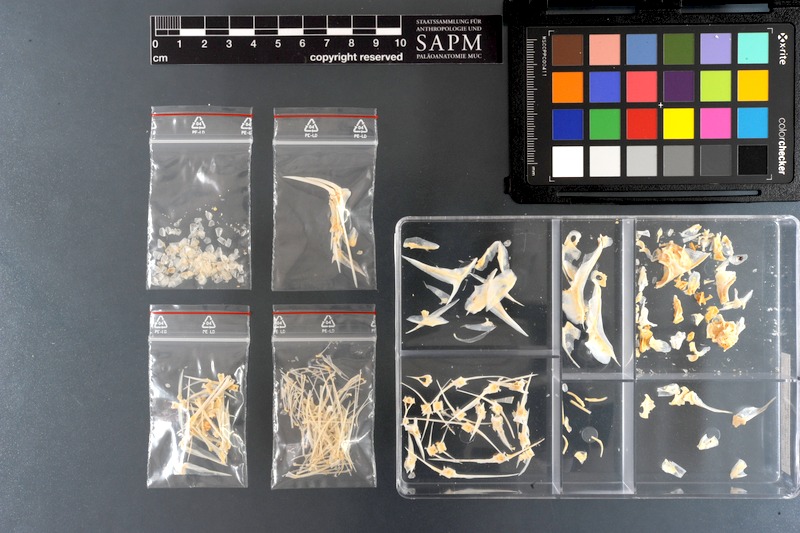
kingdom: Animalia
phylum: Chordata
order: Perciformes
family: Pomacanthidae
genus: Pomacanthus
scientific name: Pomacanthus maculosus
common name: Yellowbar angelfish
